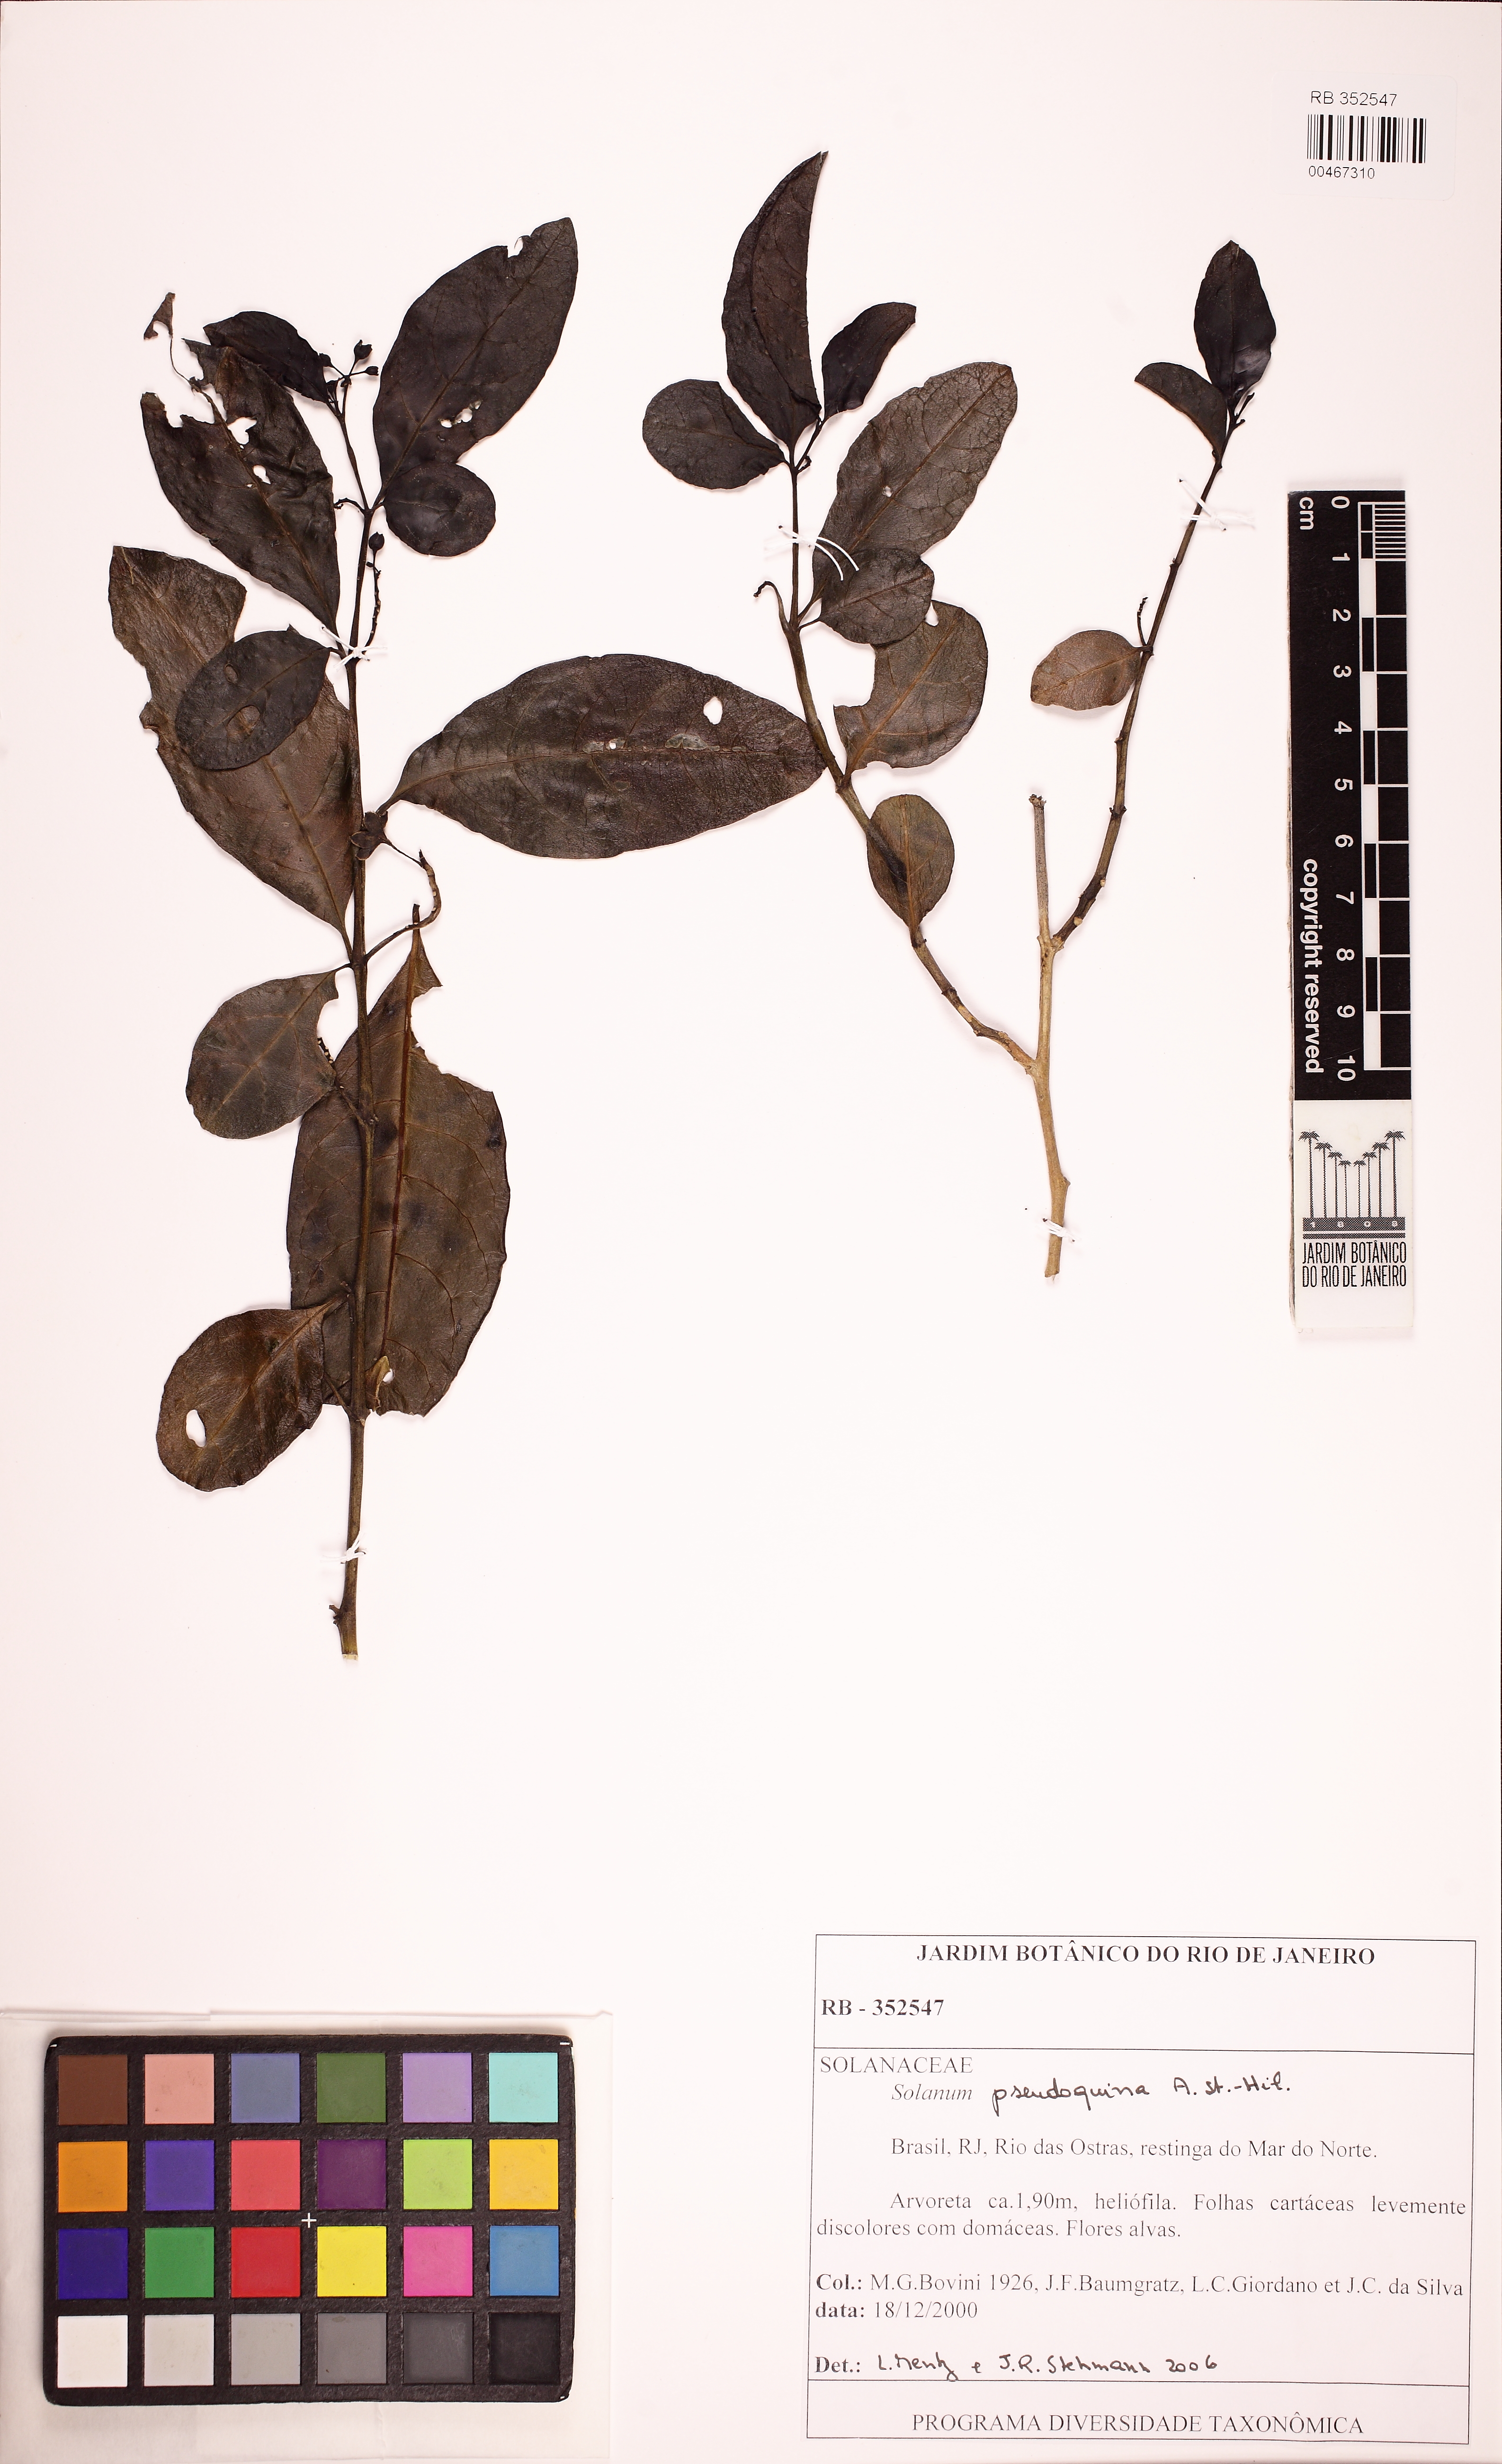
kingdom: Plantae
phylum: Tracheophyta
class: Magnoliopsida
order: Solanales
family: Solanaceae
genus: Solanum
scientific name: Solanum pseudoquina
